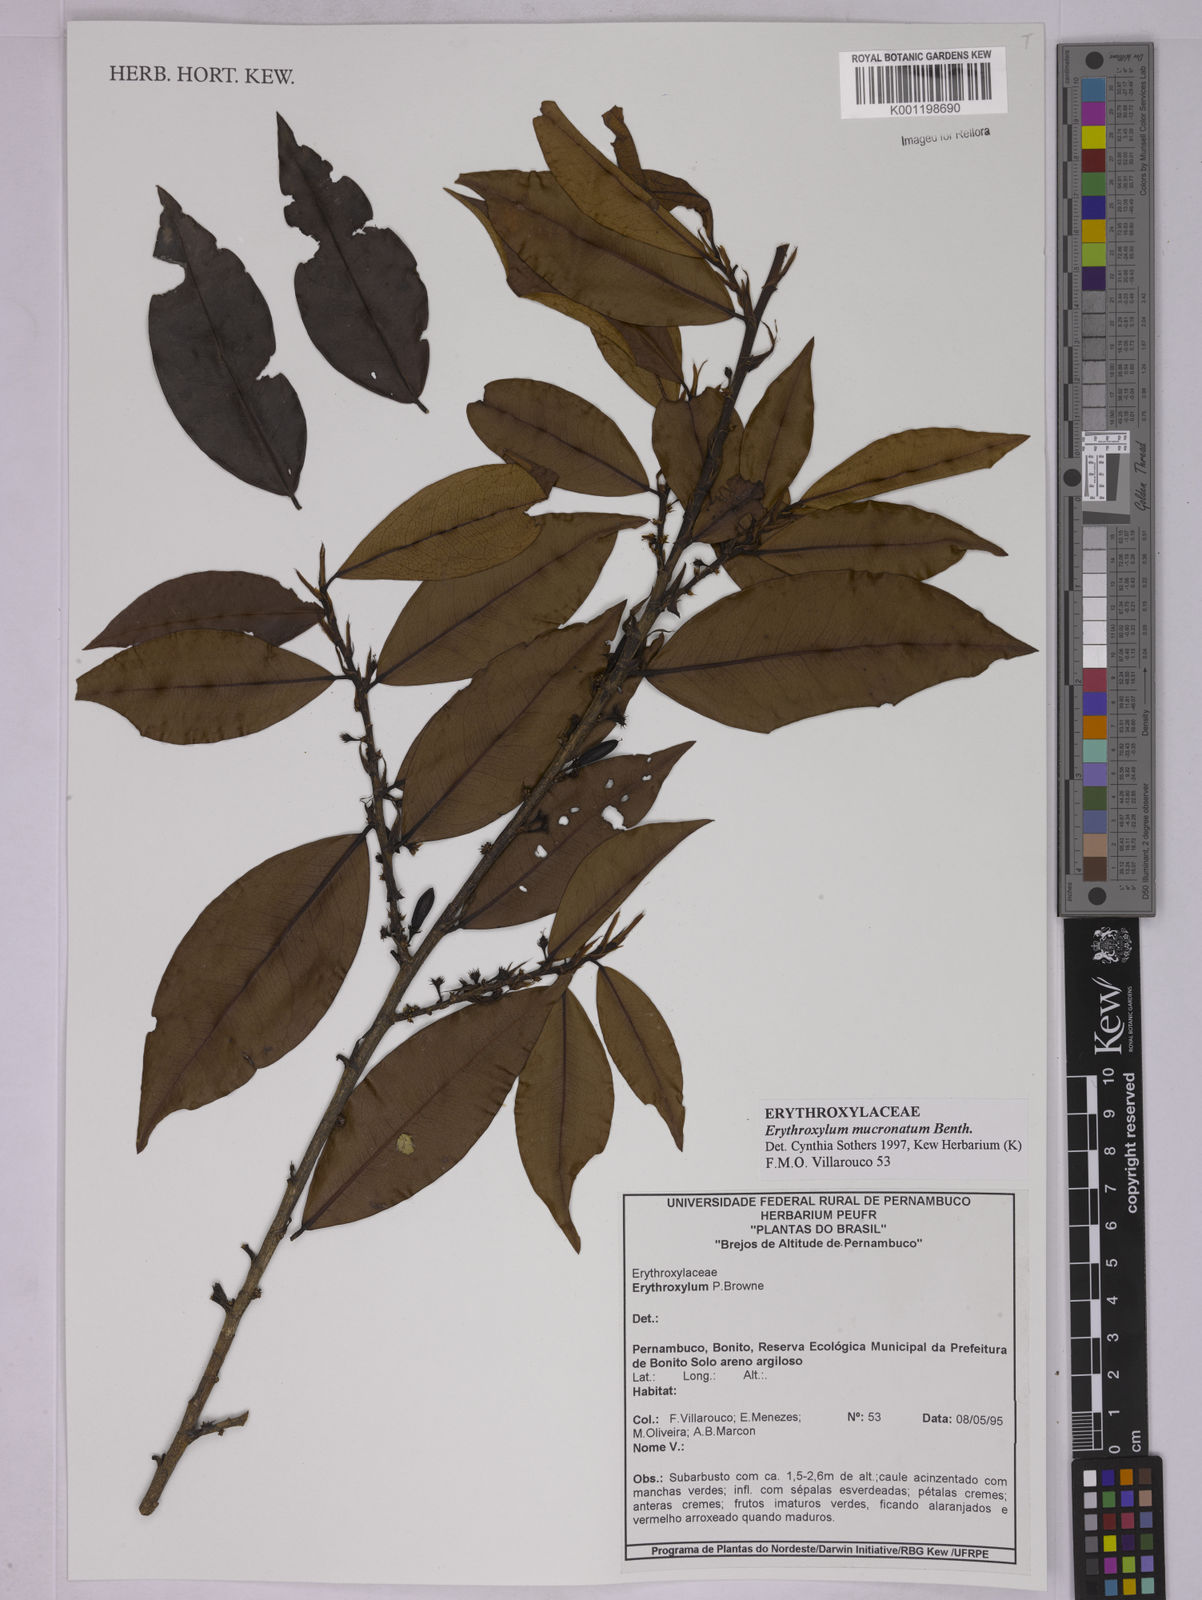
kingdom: Plantae
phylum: Tracheophyta
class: Magnoliopsida
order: Malpighiales
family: Erythroxylaceae
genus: Erythroxylum
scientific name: Erythroxylum mucronatum
